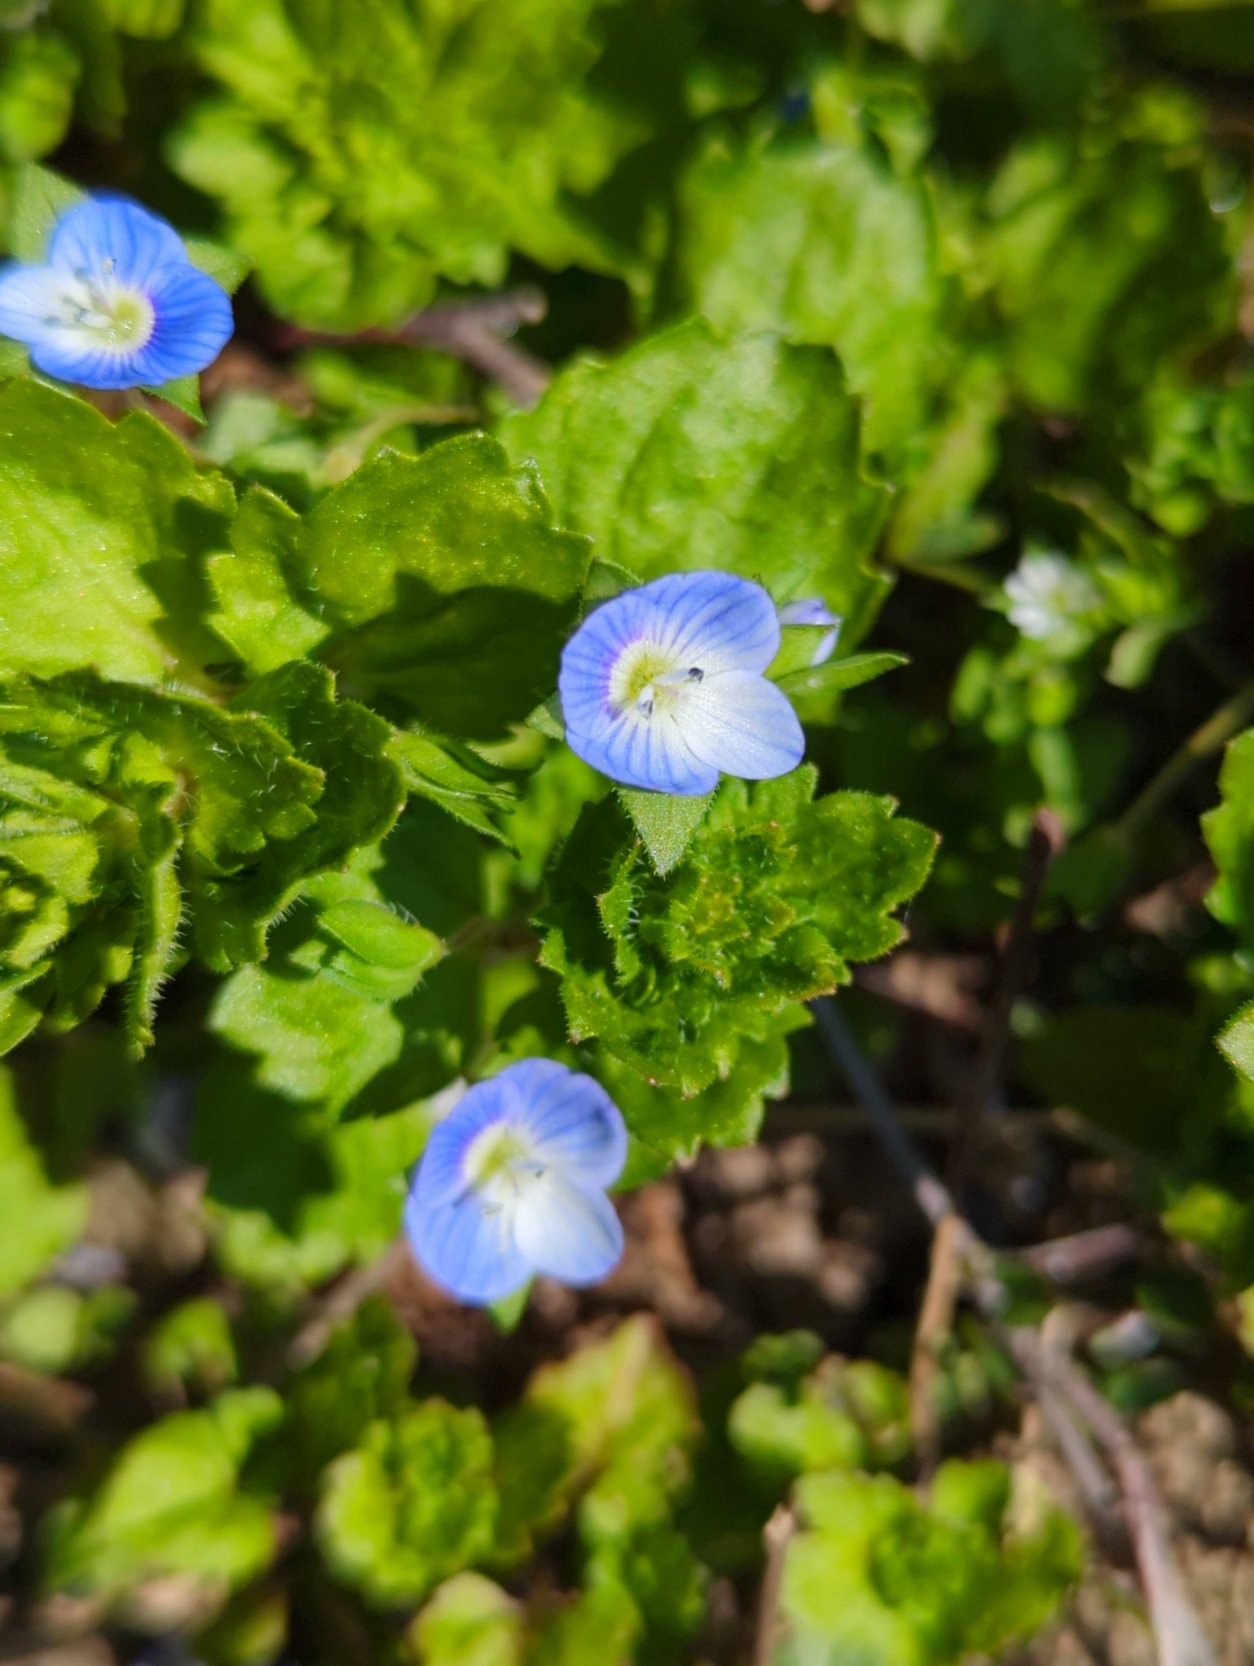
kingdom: Plantae
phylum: Tracheophyta
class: Magnoliopsida
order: Lamiales
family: Plantaginaceae
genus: Veronica
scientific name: Veronica persica
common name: Storkronet ærenpris
